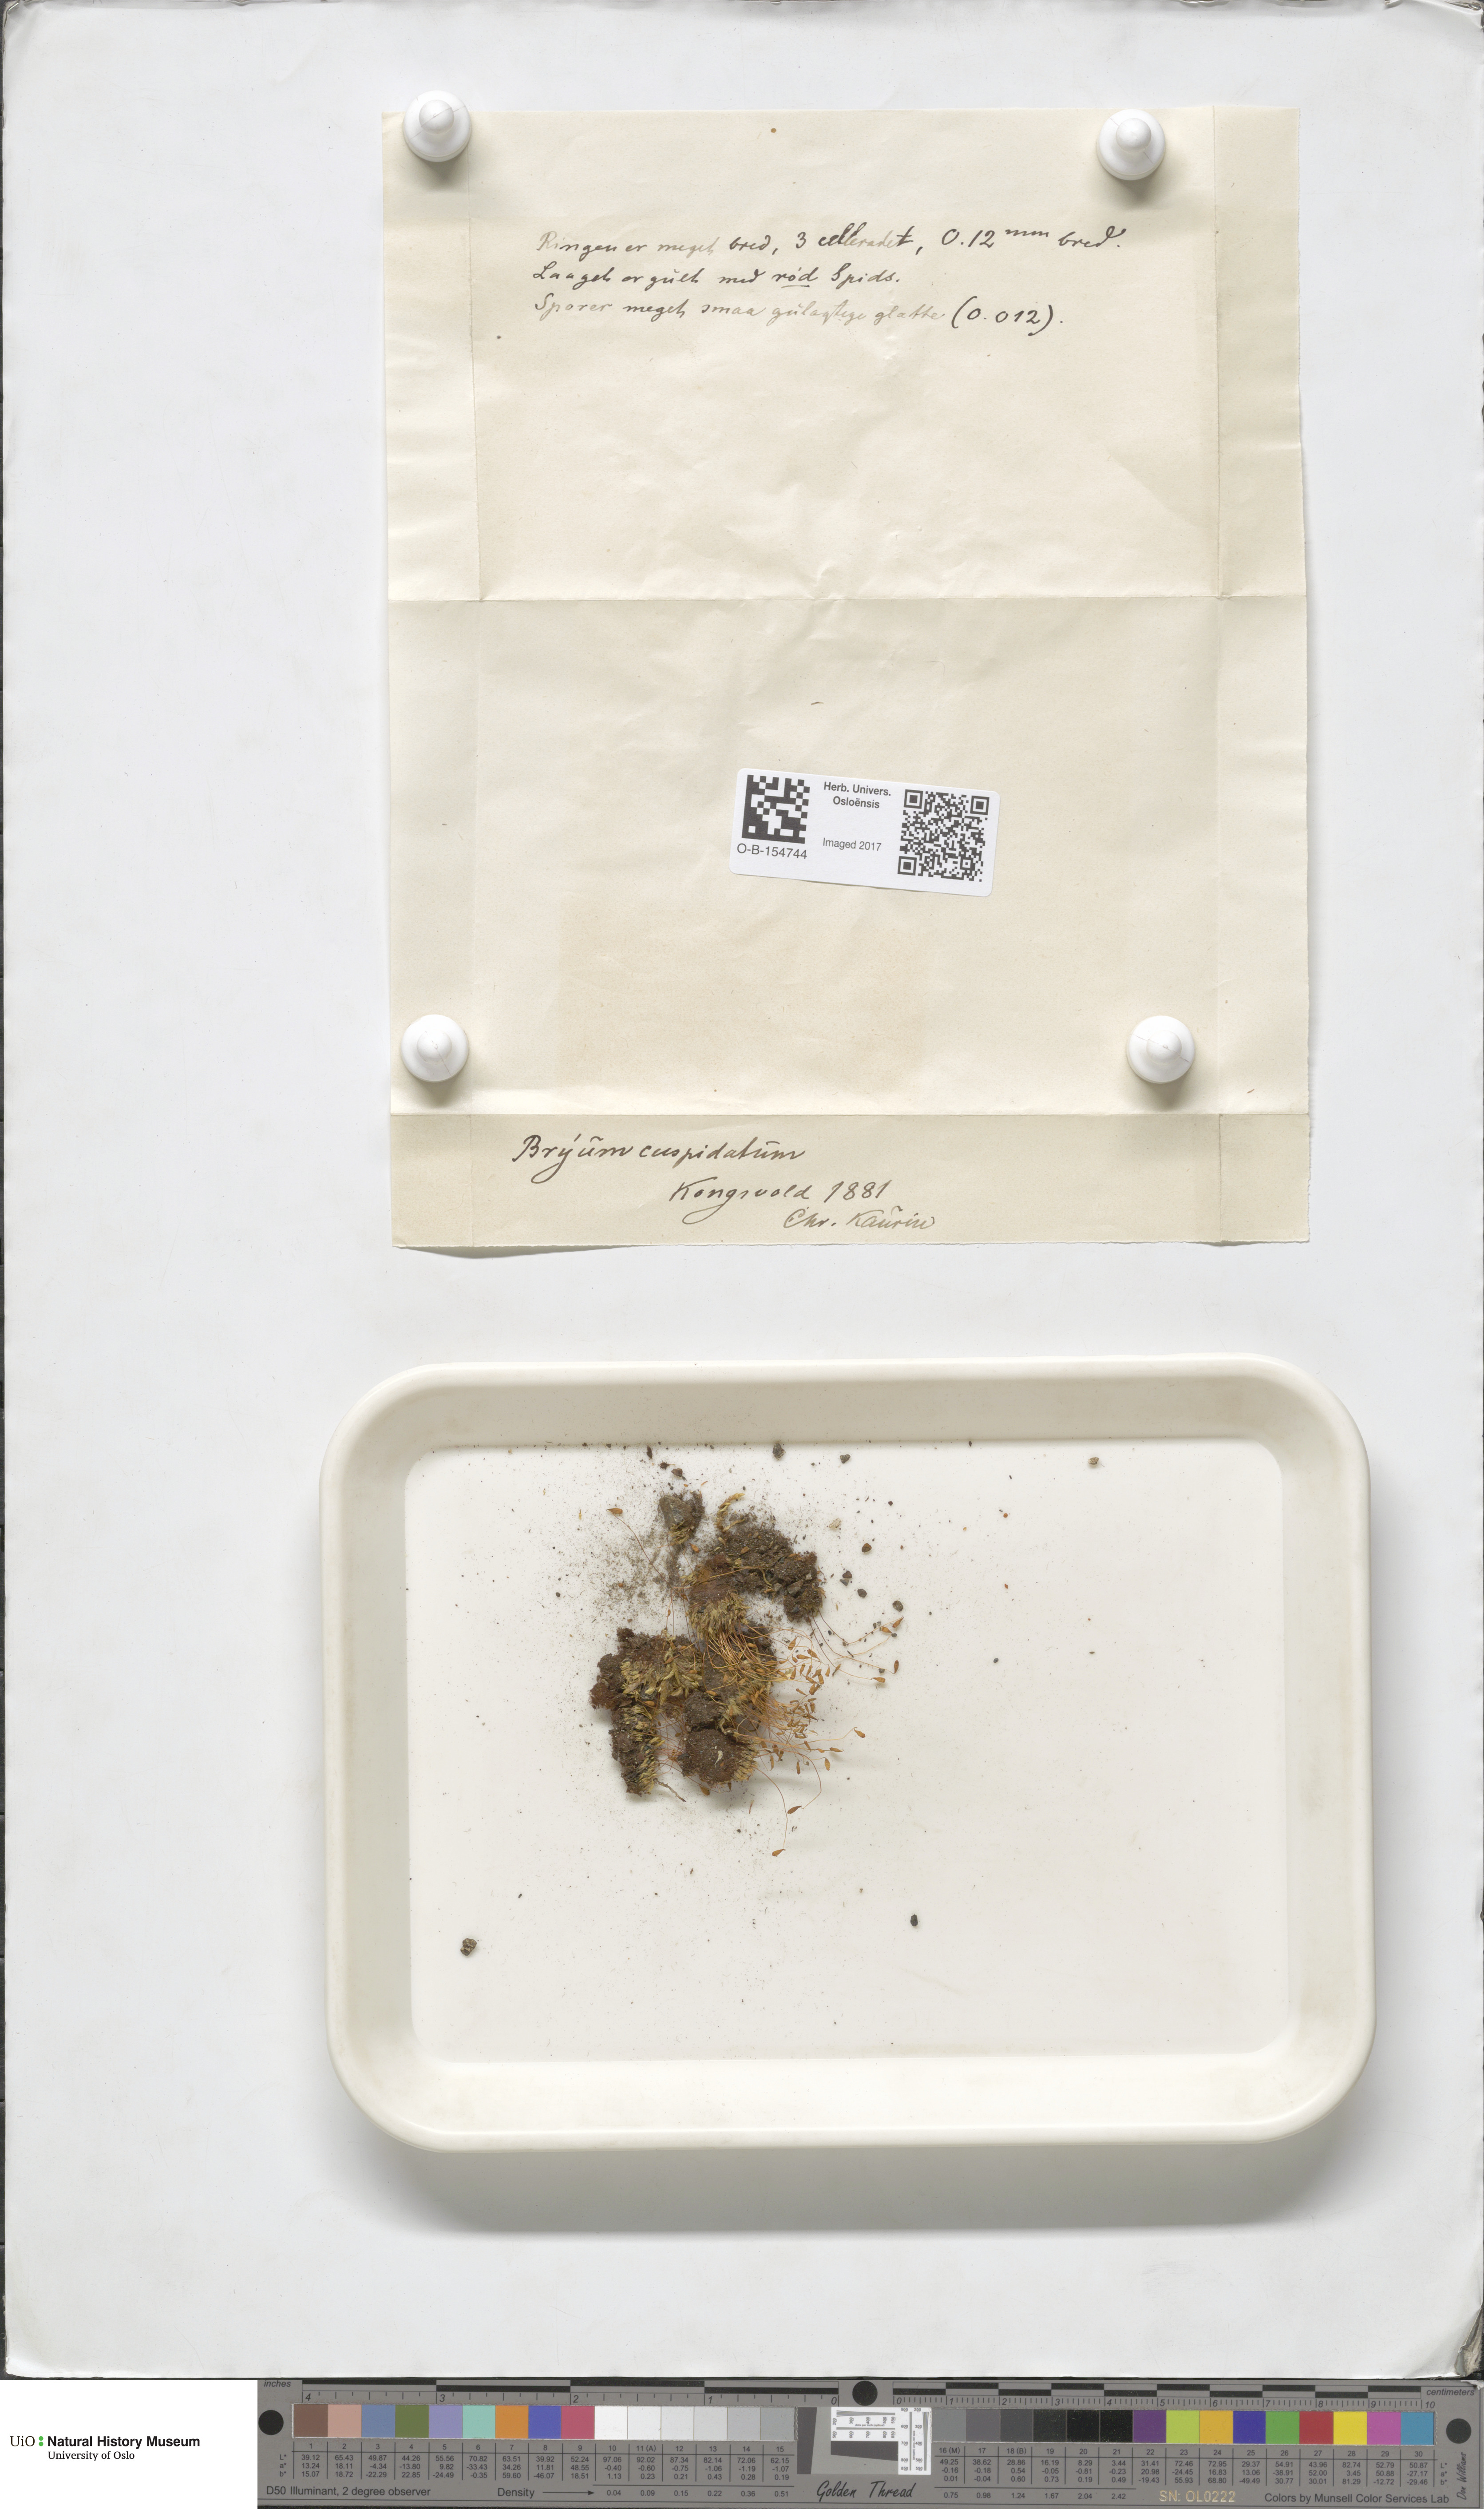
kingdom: Plantae
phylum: Bryophyta
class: Bryopsida
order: Bryales
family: Bryaceae
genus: Ptychostomum
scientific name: Ptychostomum creberrimum
